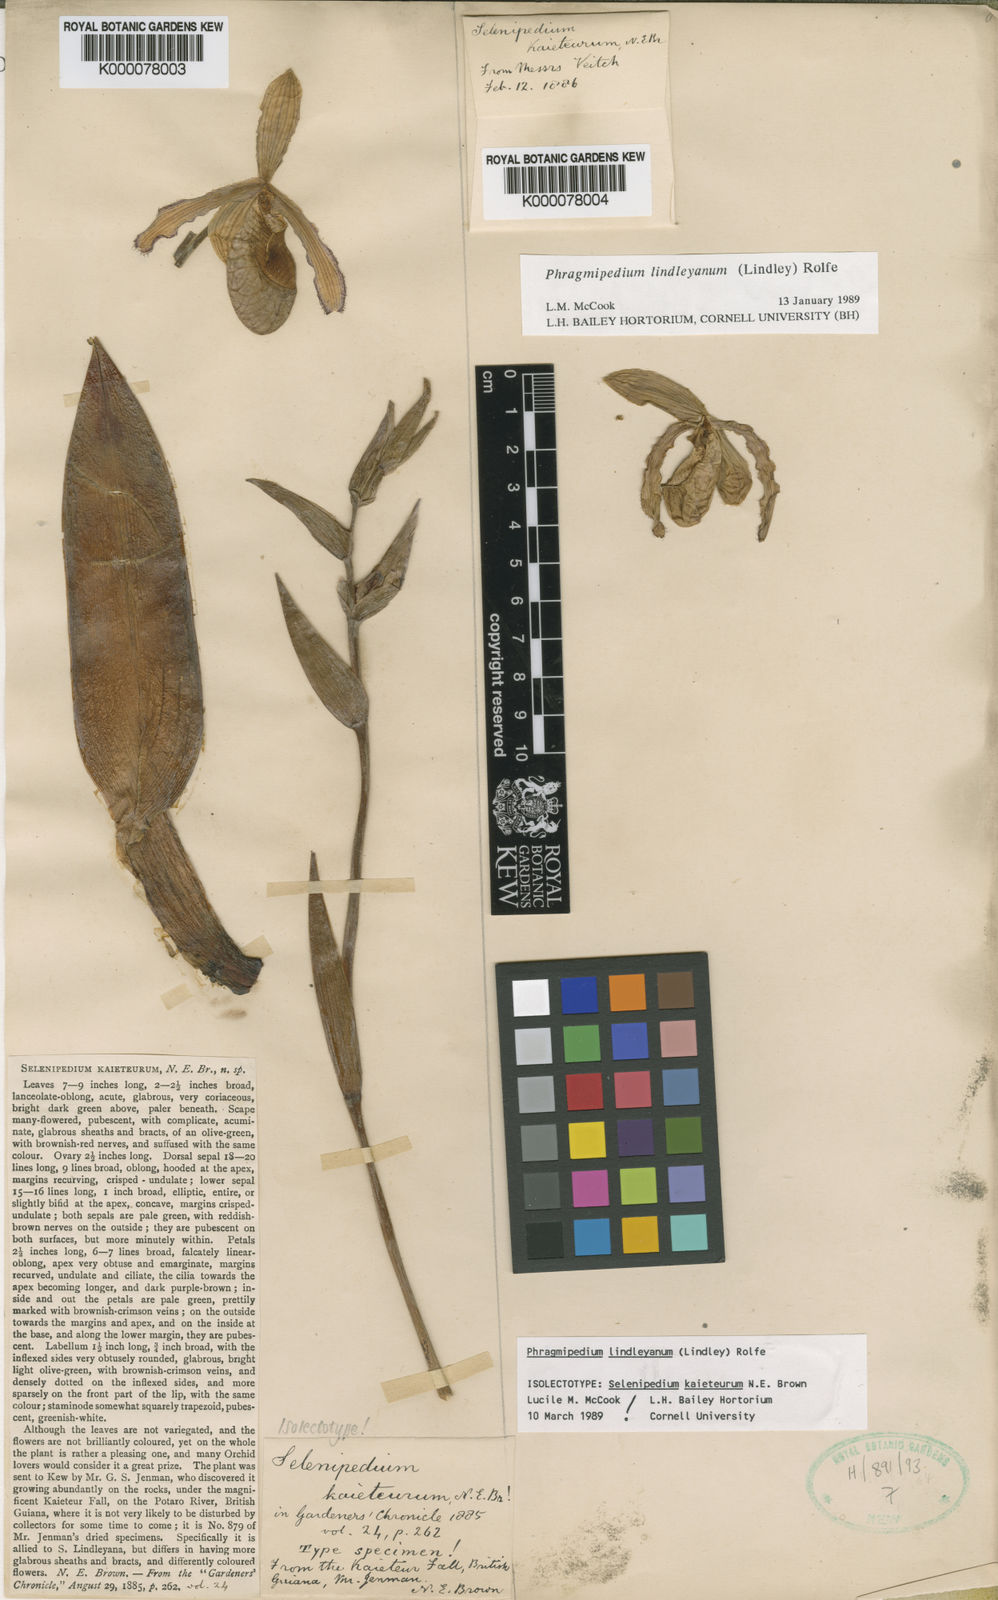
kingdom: Plantae
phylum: Tracheophyta
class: Liliopsida
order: Asparagales
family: Orchidaceae
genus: Phragmipaphium
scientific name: Phragmipaphium
